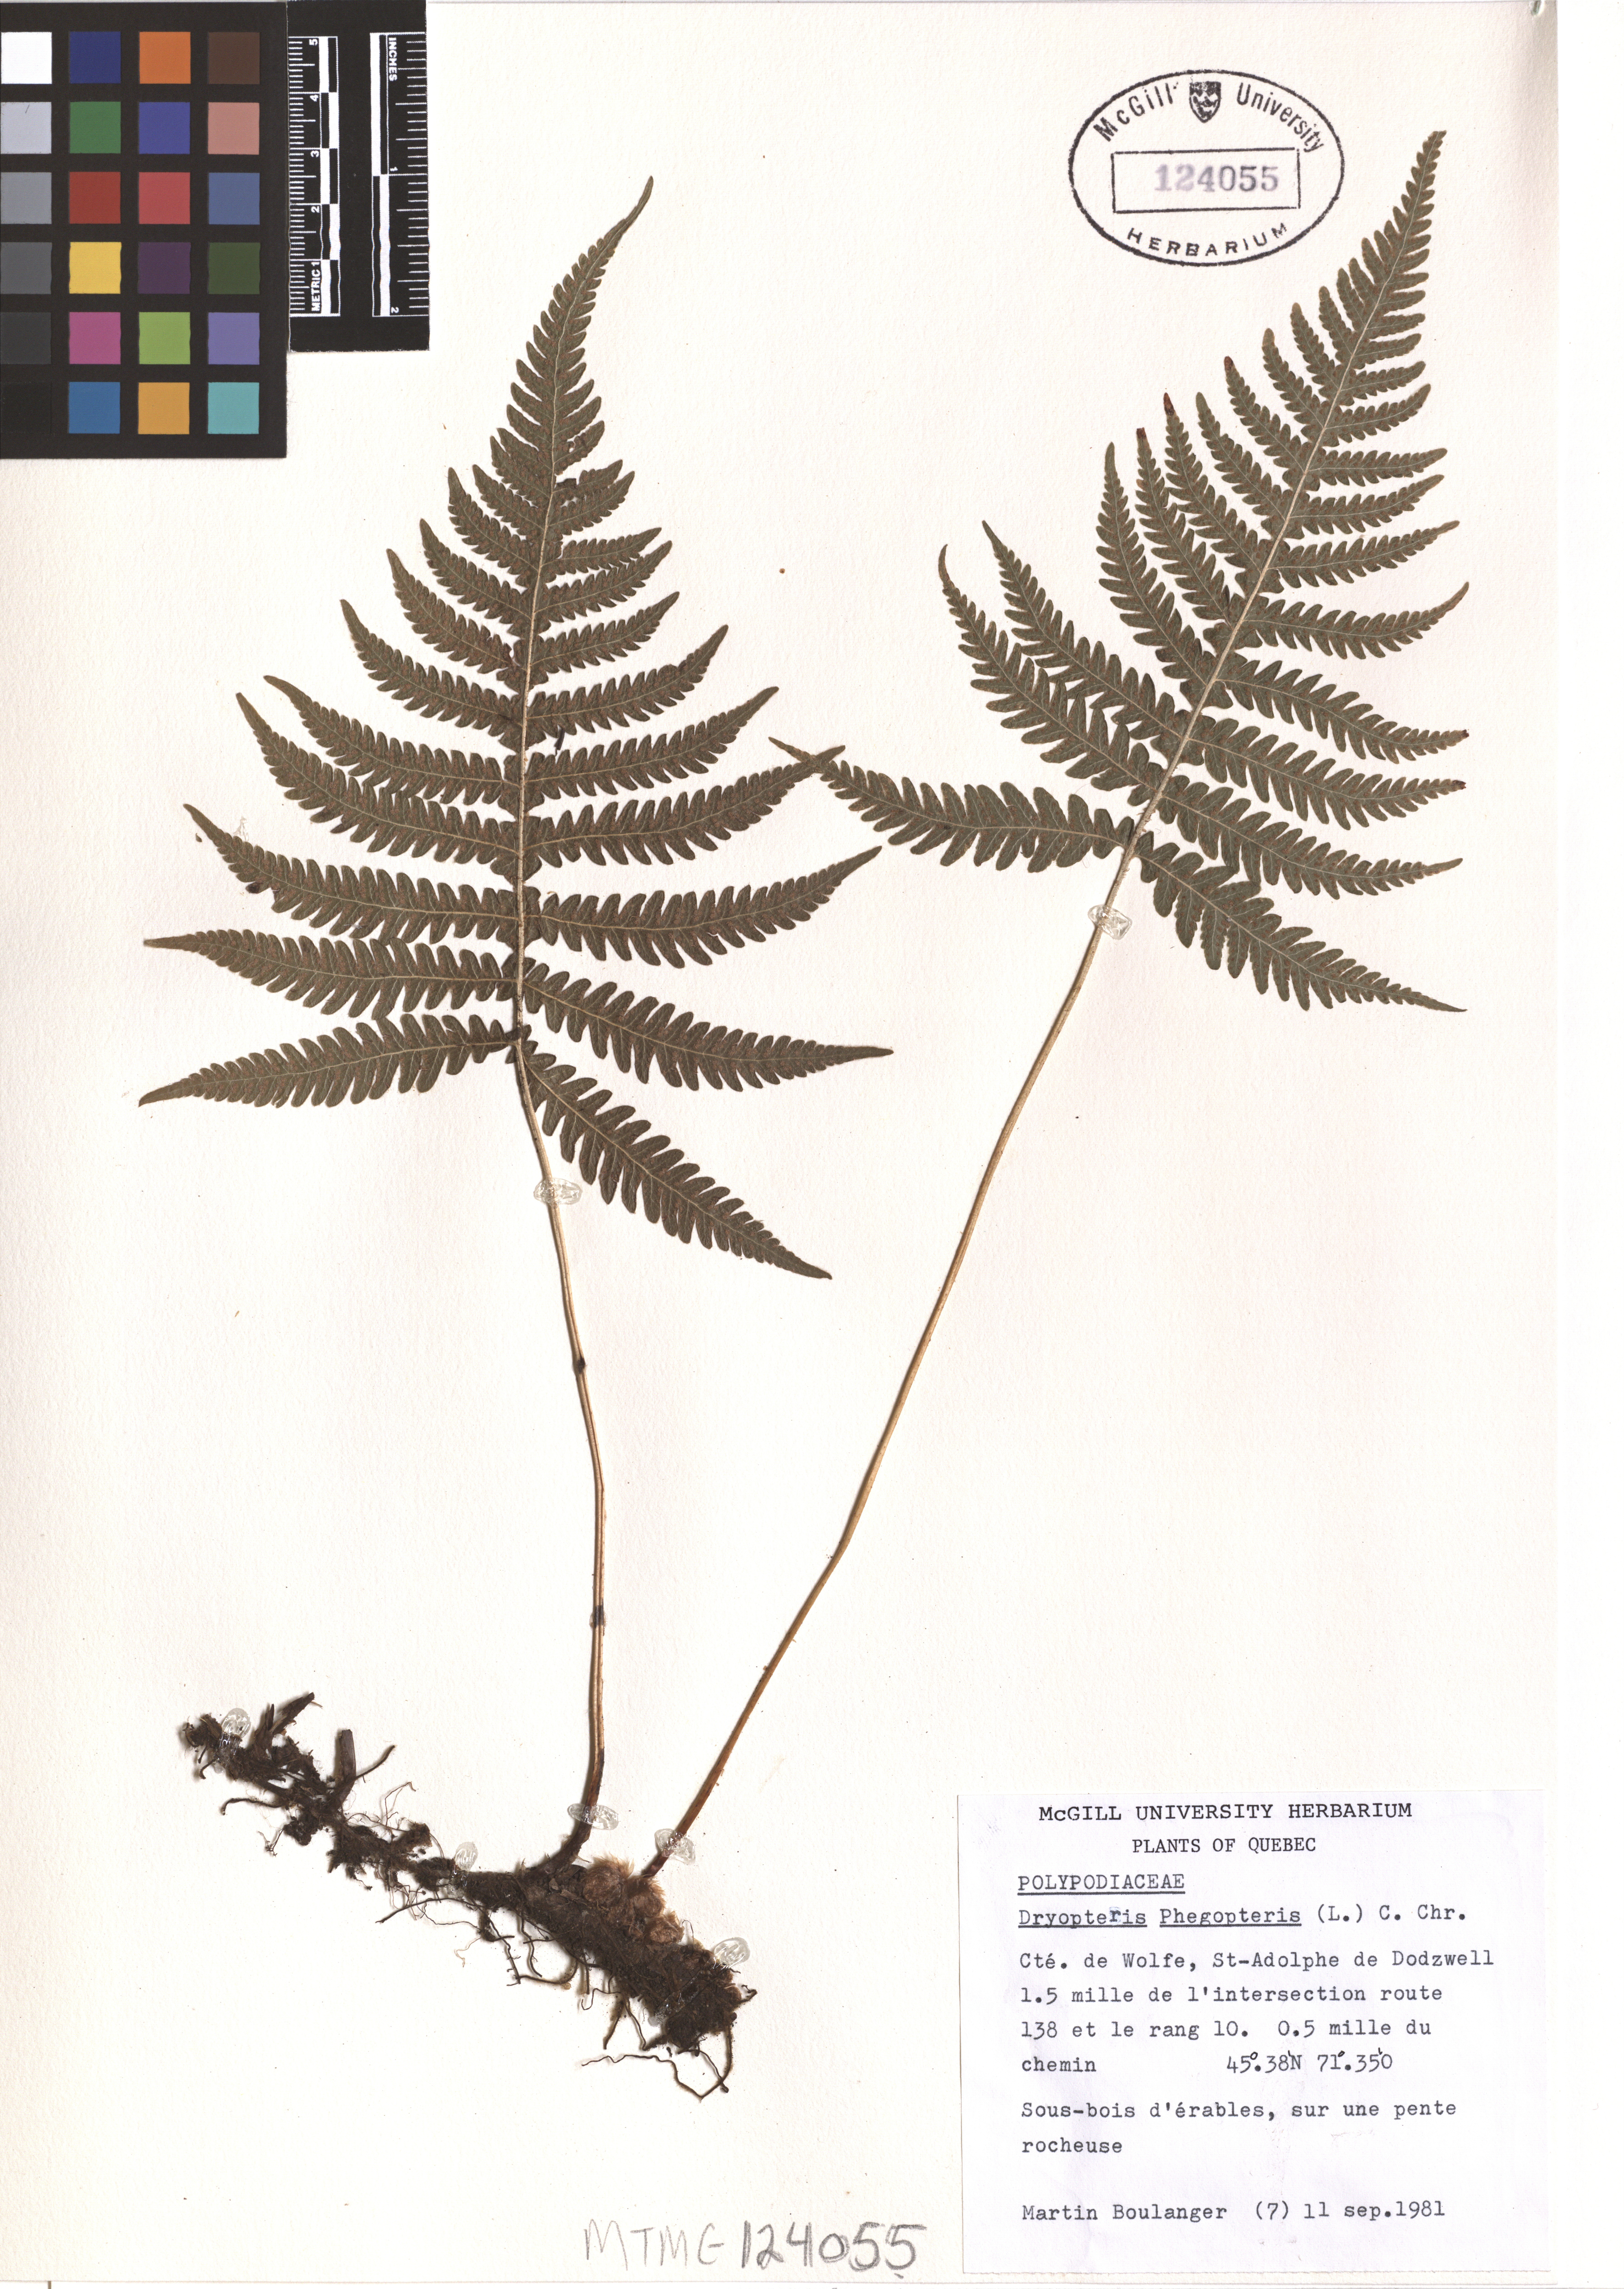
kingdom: Plantae
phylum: Tracheophyta
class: Polypodiopsida
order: Polypodiales
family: Thelypteridaceae
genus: Phegopteris
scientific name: Phegopteris connectilis
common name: Beech fern
